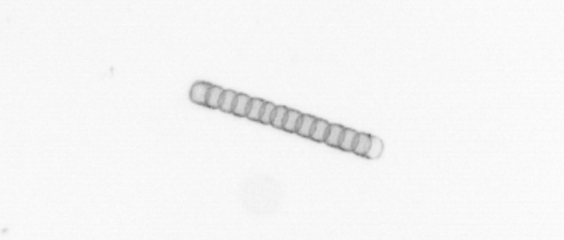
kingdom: Chromista
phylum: Ochrophyta
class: Bacillariophyceae
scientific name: Bacillariophyceae
